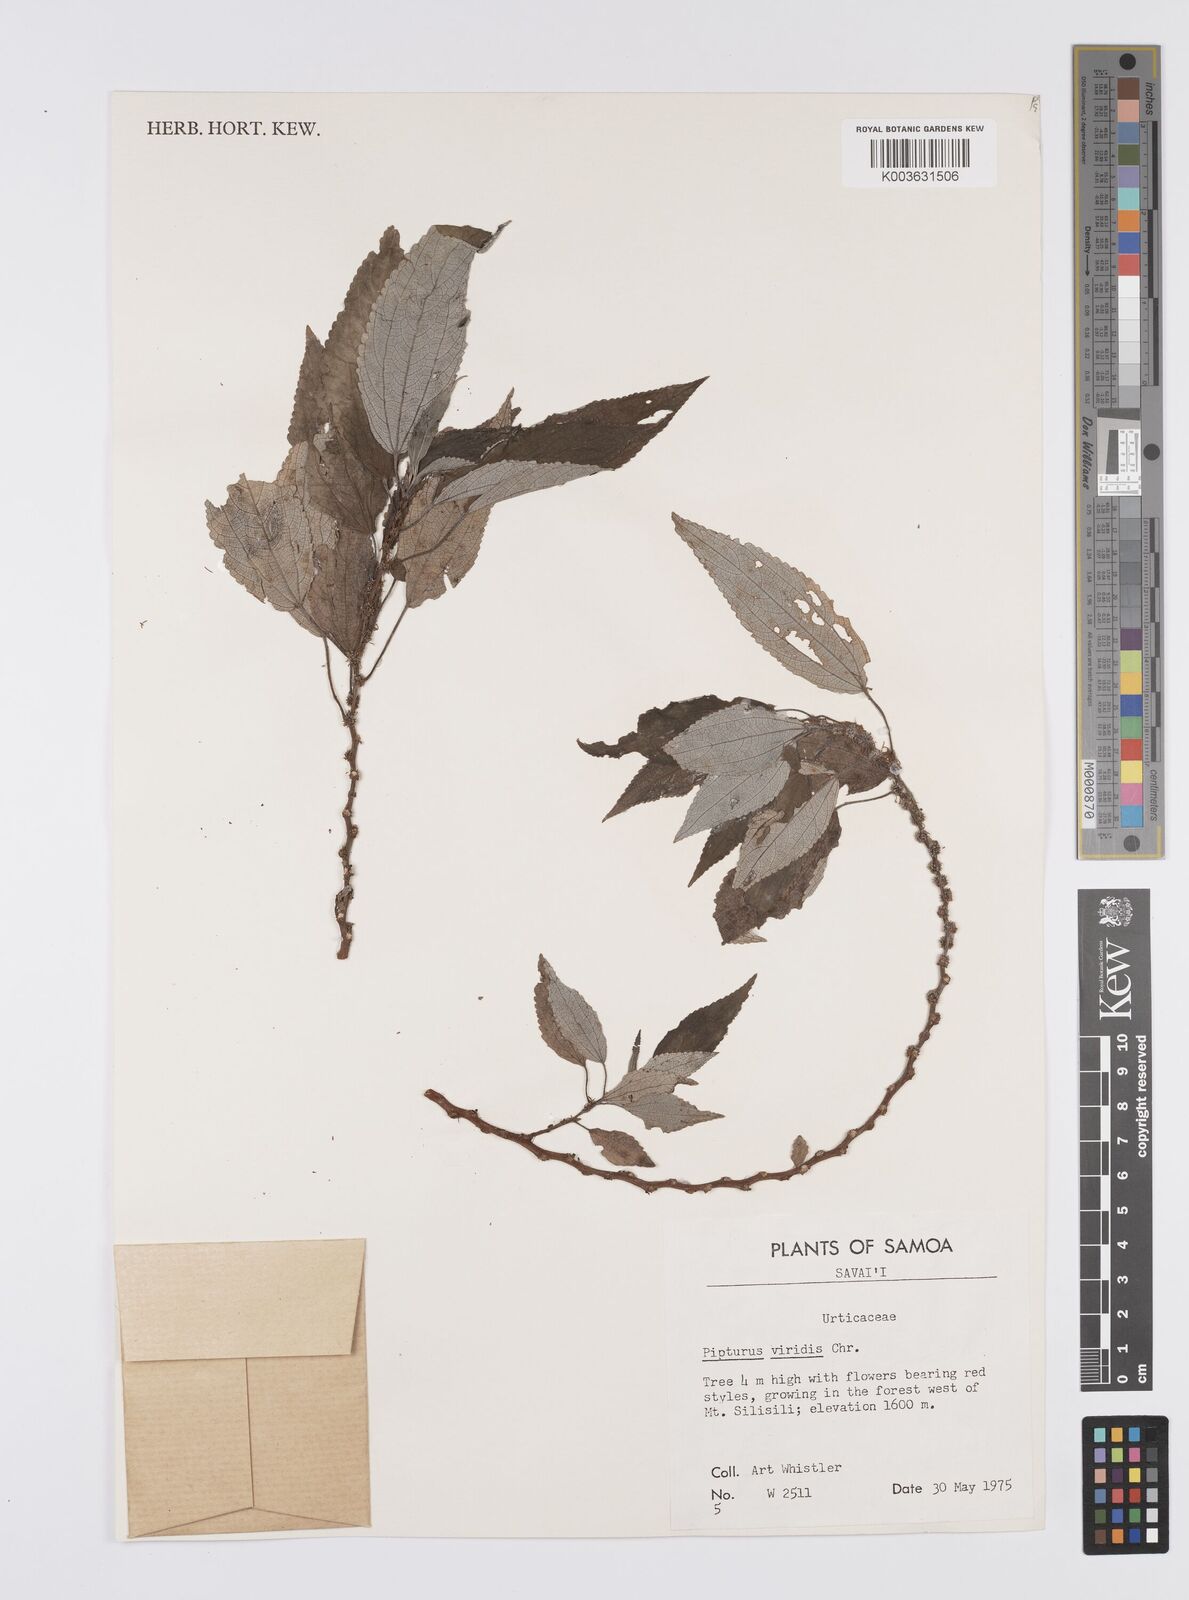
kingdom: Plantae
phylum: Tracheophyta
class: Magnoliopsida
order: Rosales
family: Urticaceae
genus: Pipturus
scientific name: Pipturus viridis
